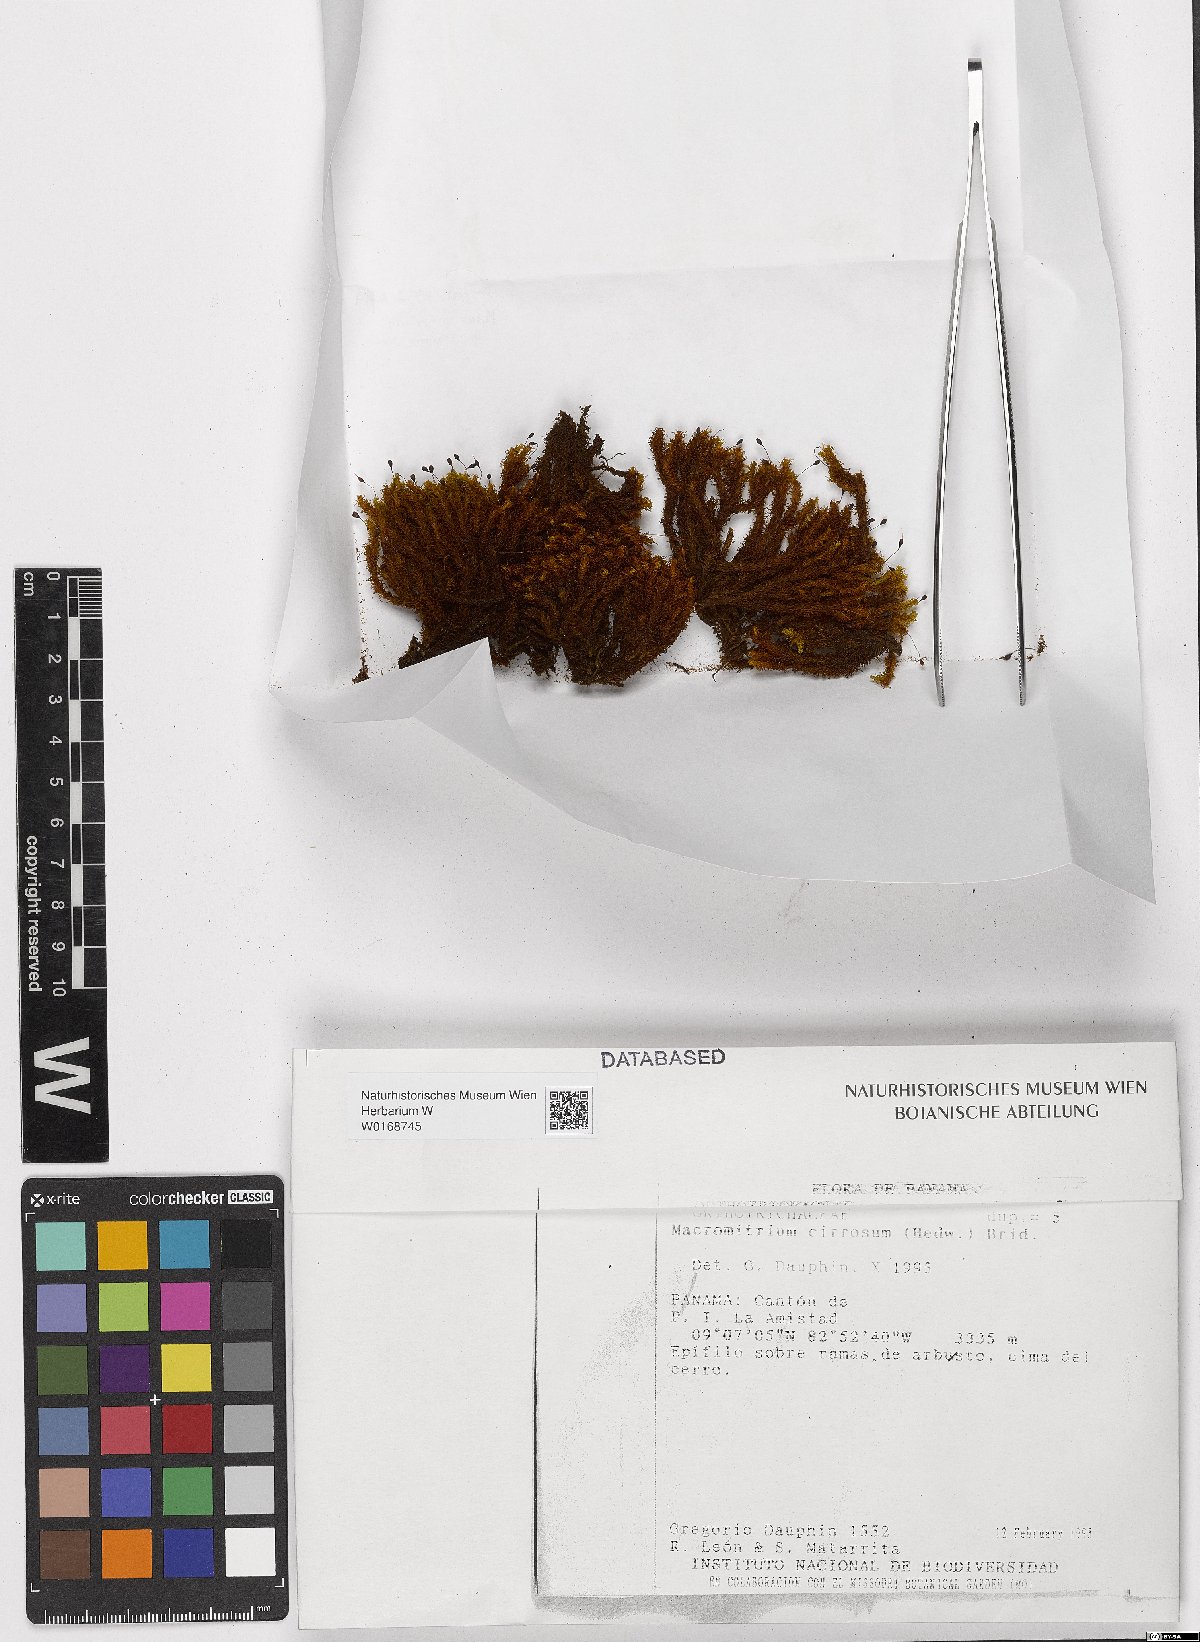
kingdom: Plantae
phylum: Bryophyta
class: Bryopsida
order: Orthotrichales
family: Orthotrichaceae
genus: Macromitrium
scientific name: Macromitrium cirrosum
